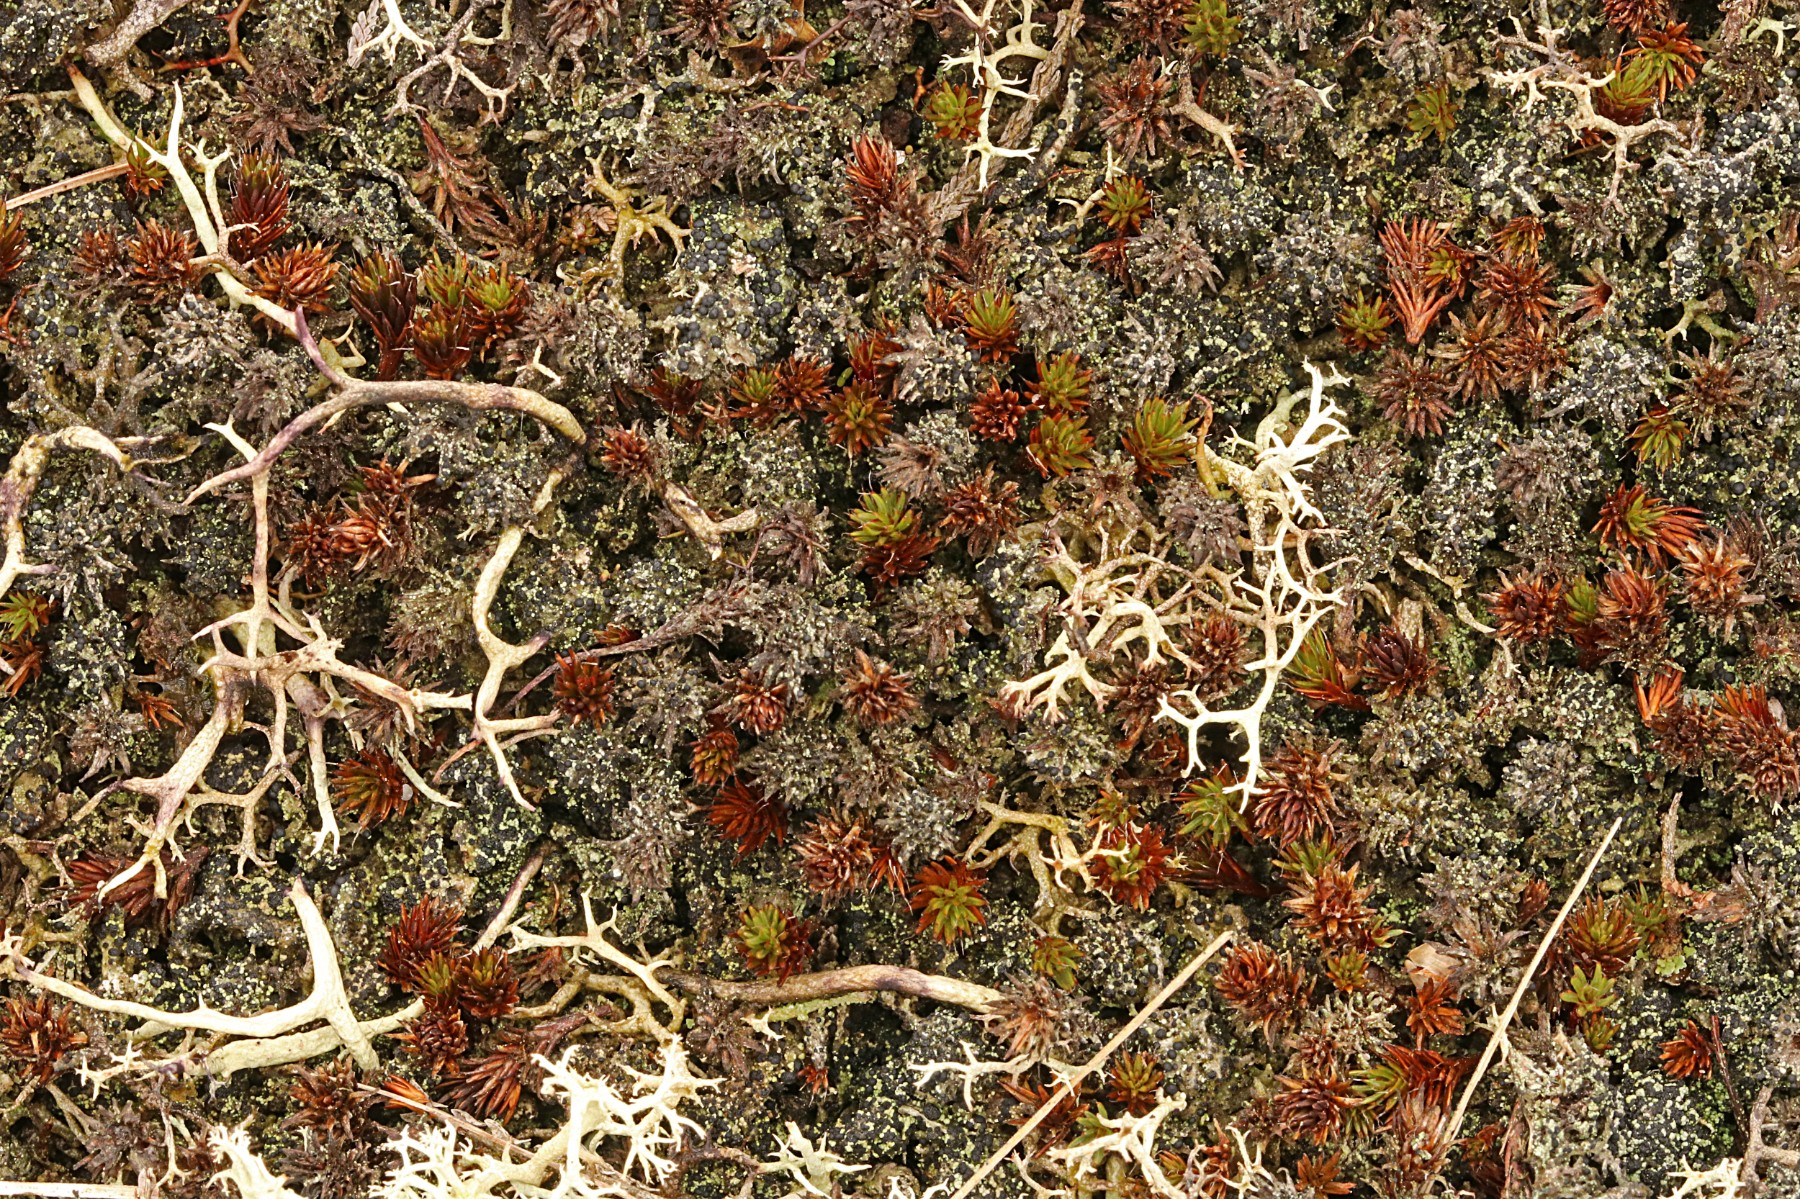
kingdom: Fungi
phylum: Ascomycota
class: Lecanoromycetes
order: Lecanorales
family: Byssolomataceae
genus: Micarea
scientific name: Micarea lignaria
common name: tørve-knaplav
